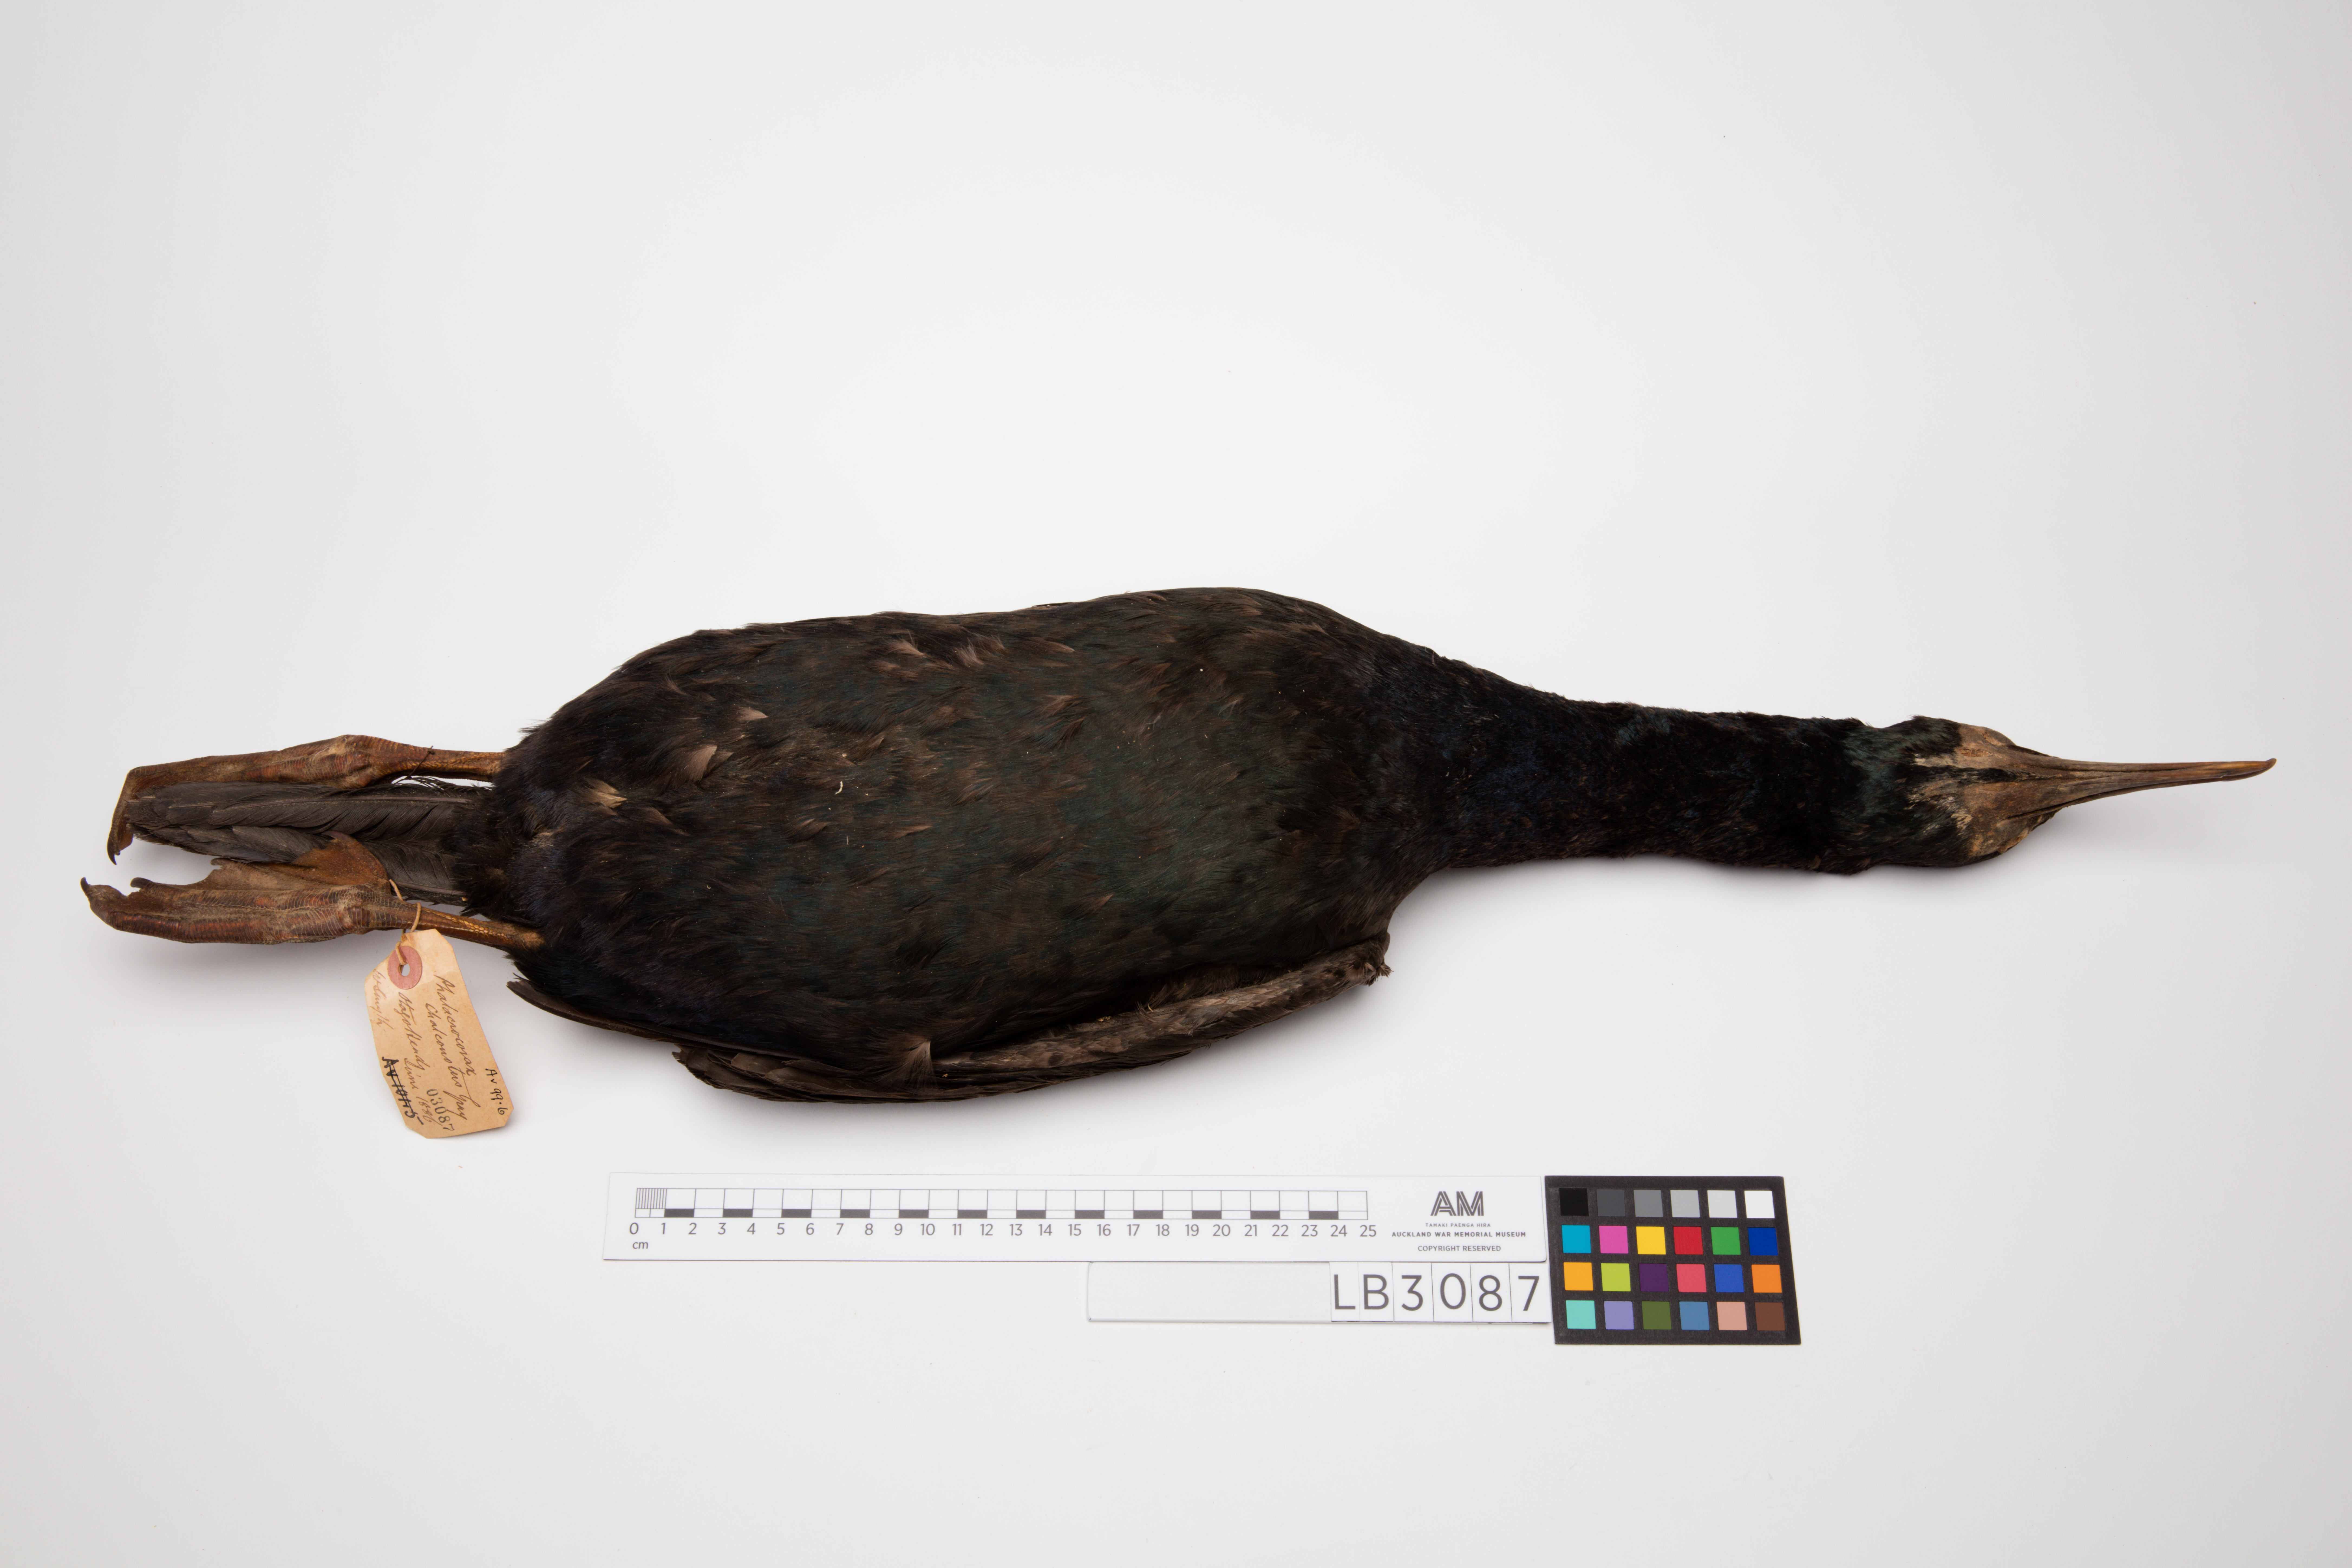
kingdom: Animalia
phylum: Chordata
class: Aves
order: Suliformes
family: Phalacrocoracidae
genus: Leucocarbo
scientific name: Leucocarbo chalconotus
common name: Stewart shag
